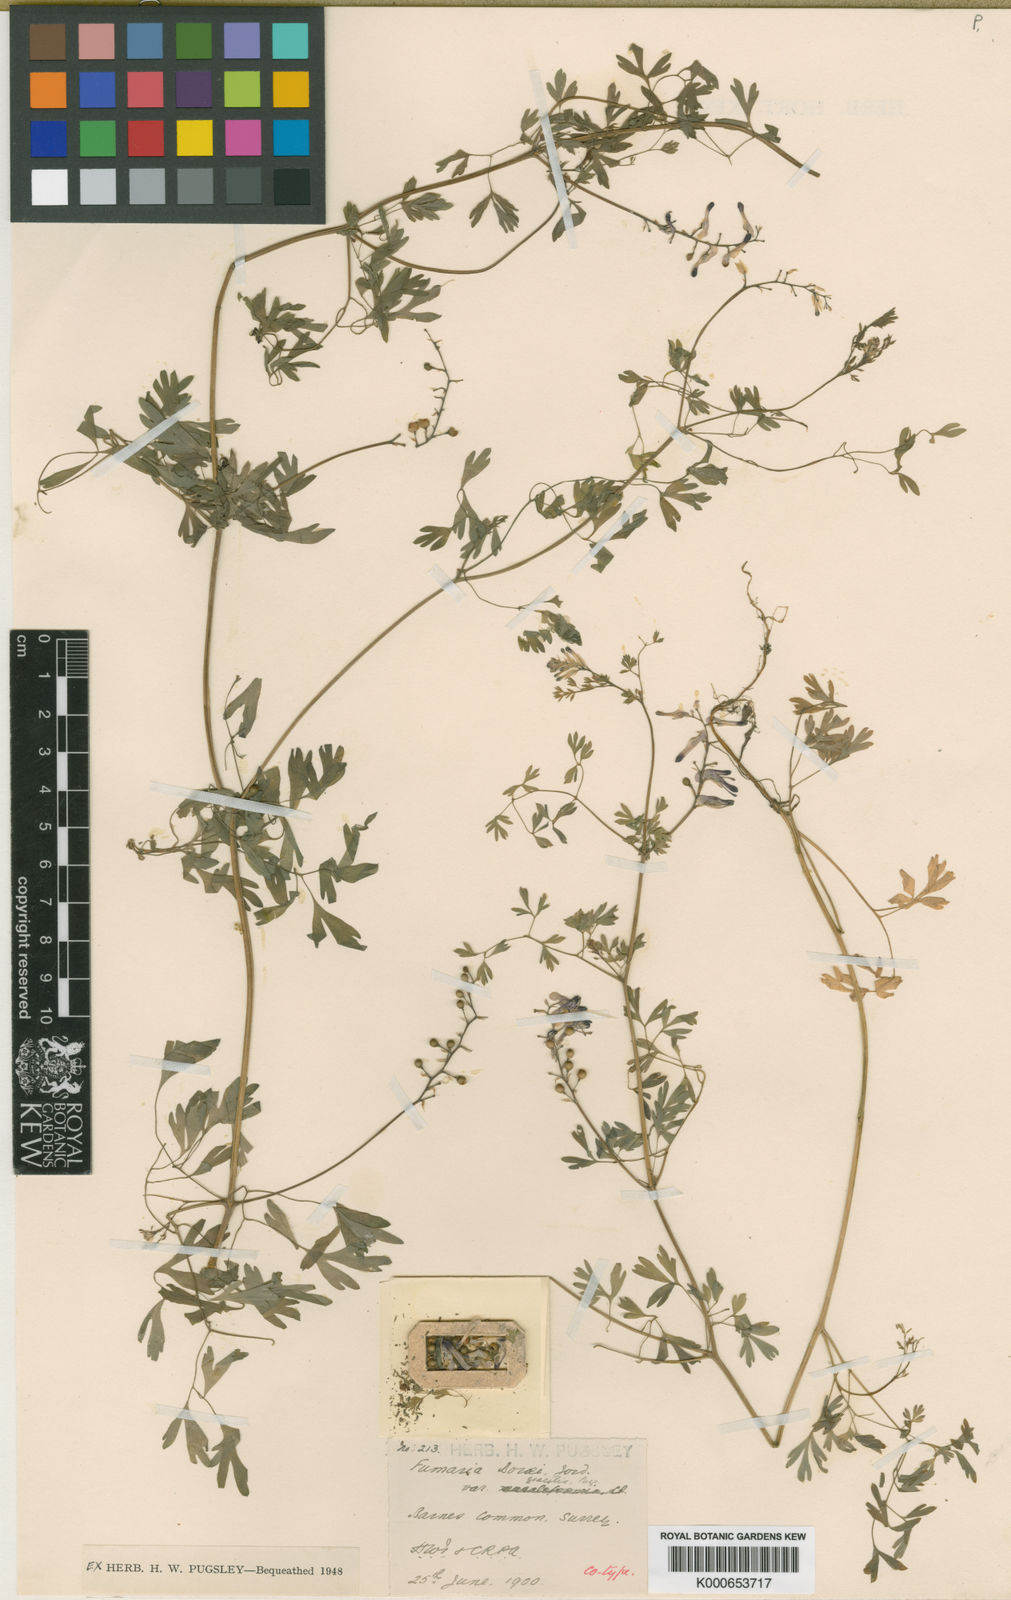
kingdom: Plantae
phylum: Tracheophyta
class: Magnoliopsida
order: Ranunculales
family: Papaveraceae
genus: Fumaria
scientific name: Fumaria muralis
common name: Common ramping-fumitory
